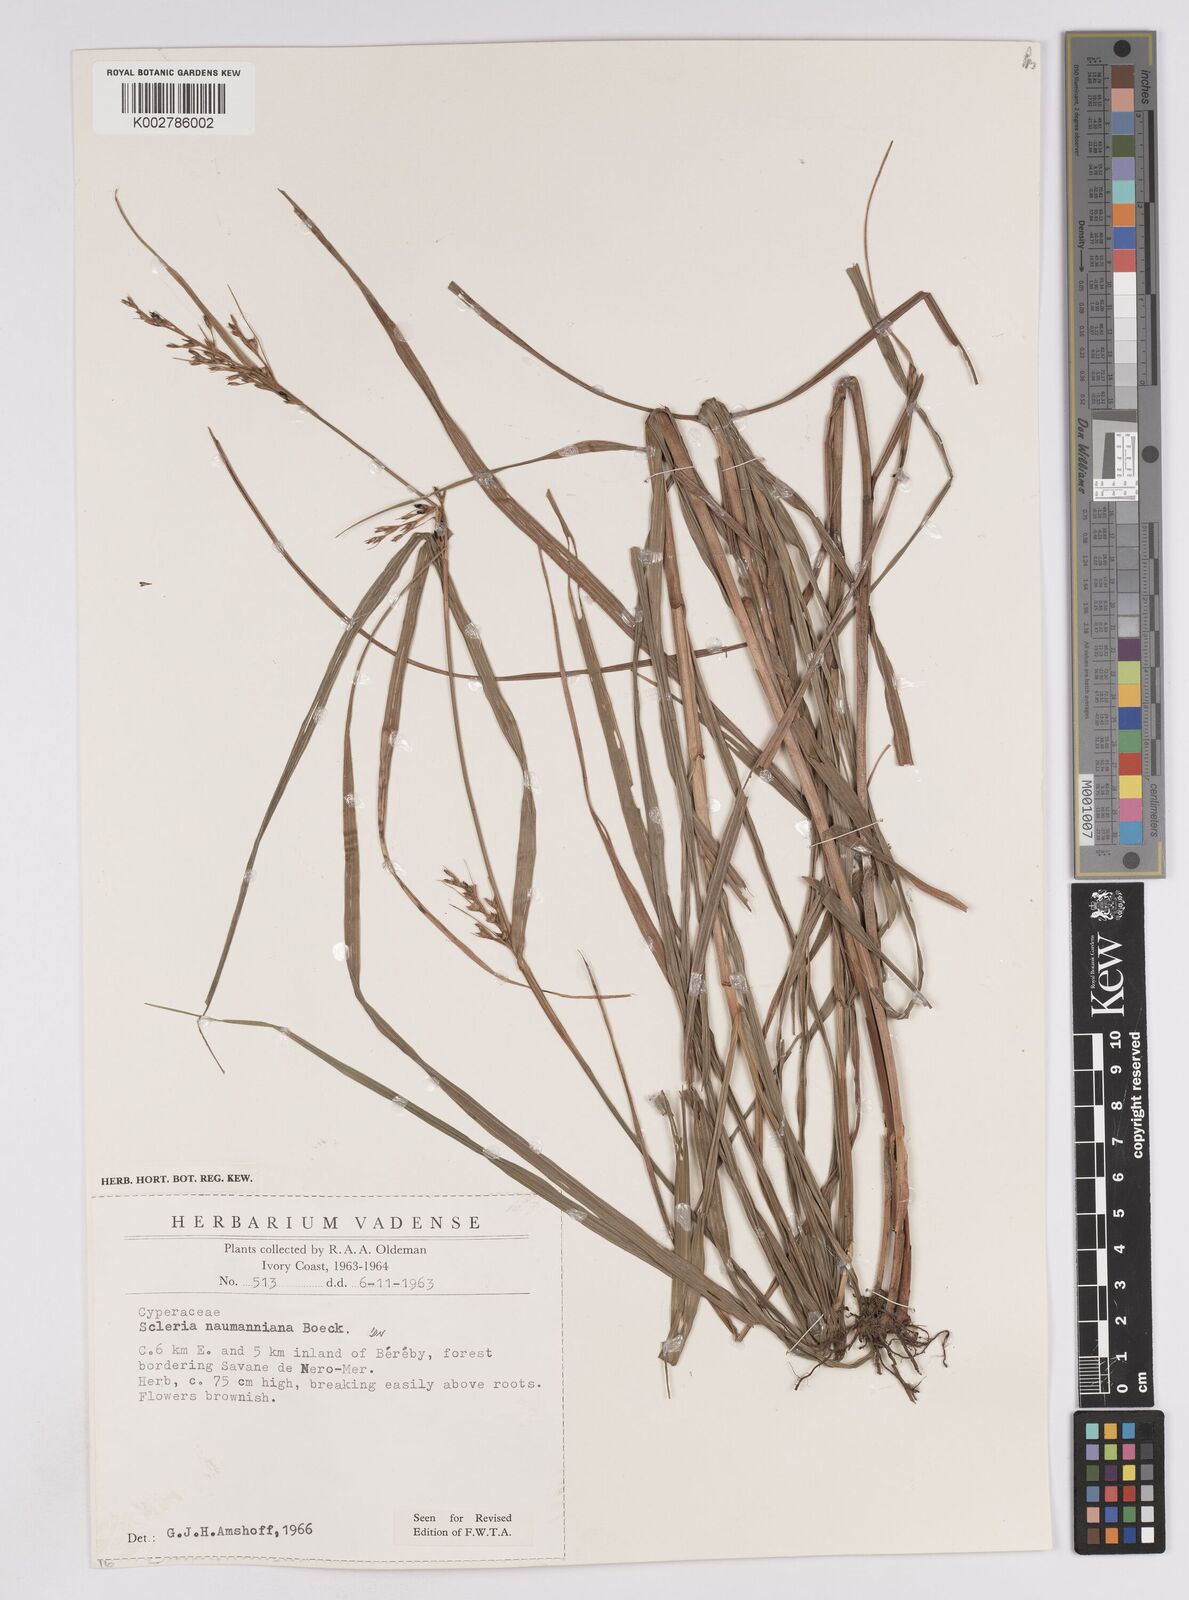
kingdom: Plantae
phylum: Tracheophyta
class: Liliopsida
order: Poales
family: Cyperaceae
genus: Scleria
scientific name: Scleria naumanniana
